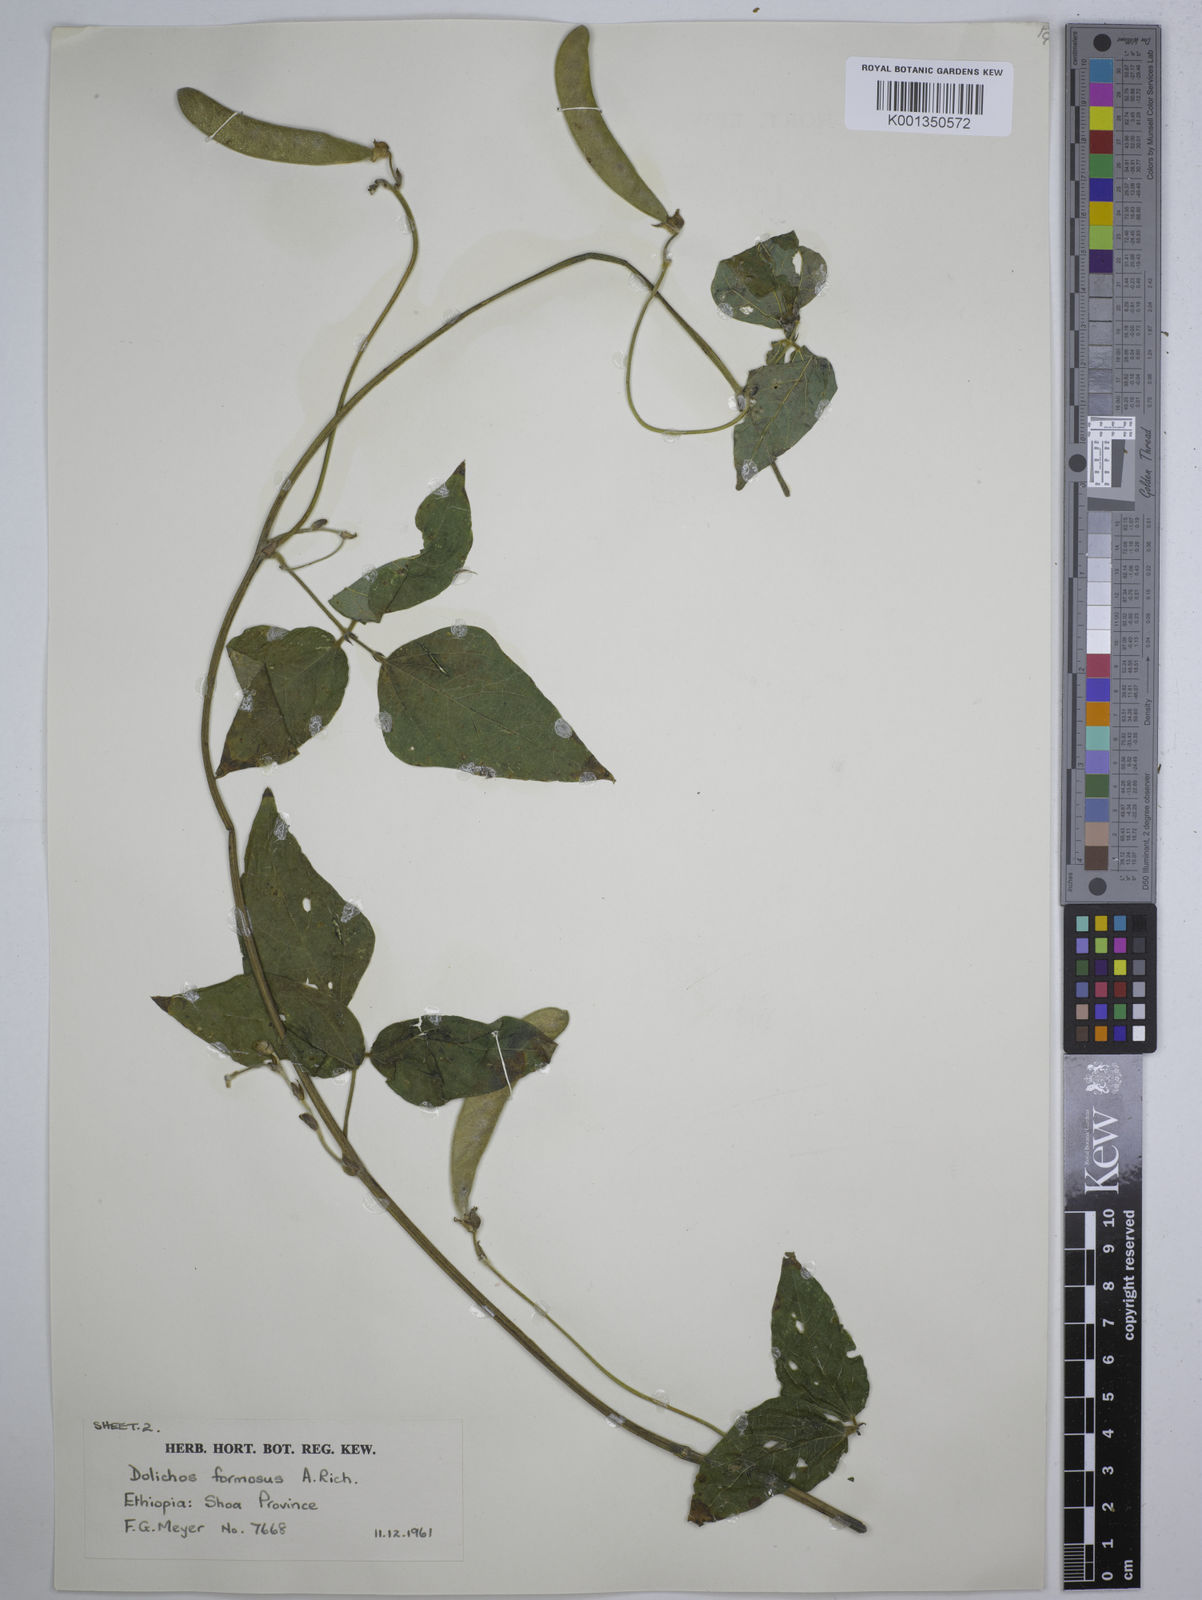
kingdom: Plantae
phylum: Tracheophyta
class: Magnoliopsida
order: Fabales
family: Fabaceae
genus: Dolichos
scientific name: Dolichos
